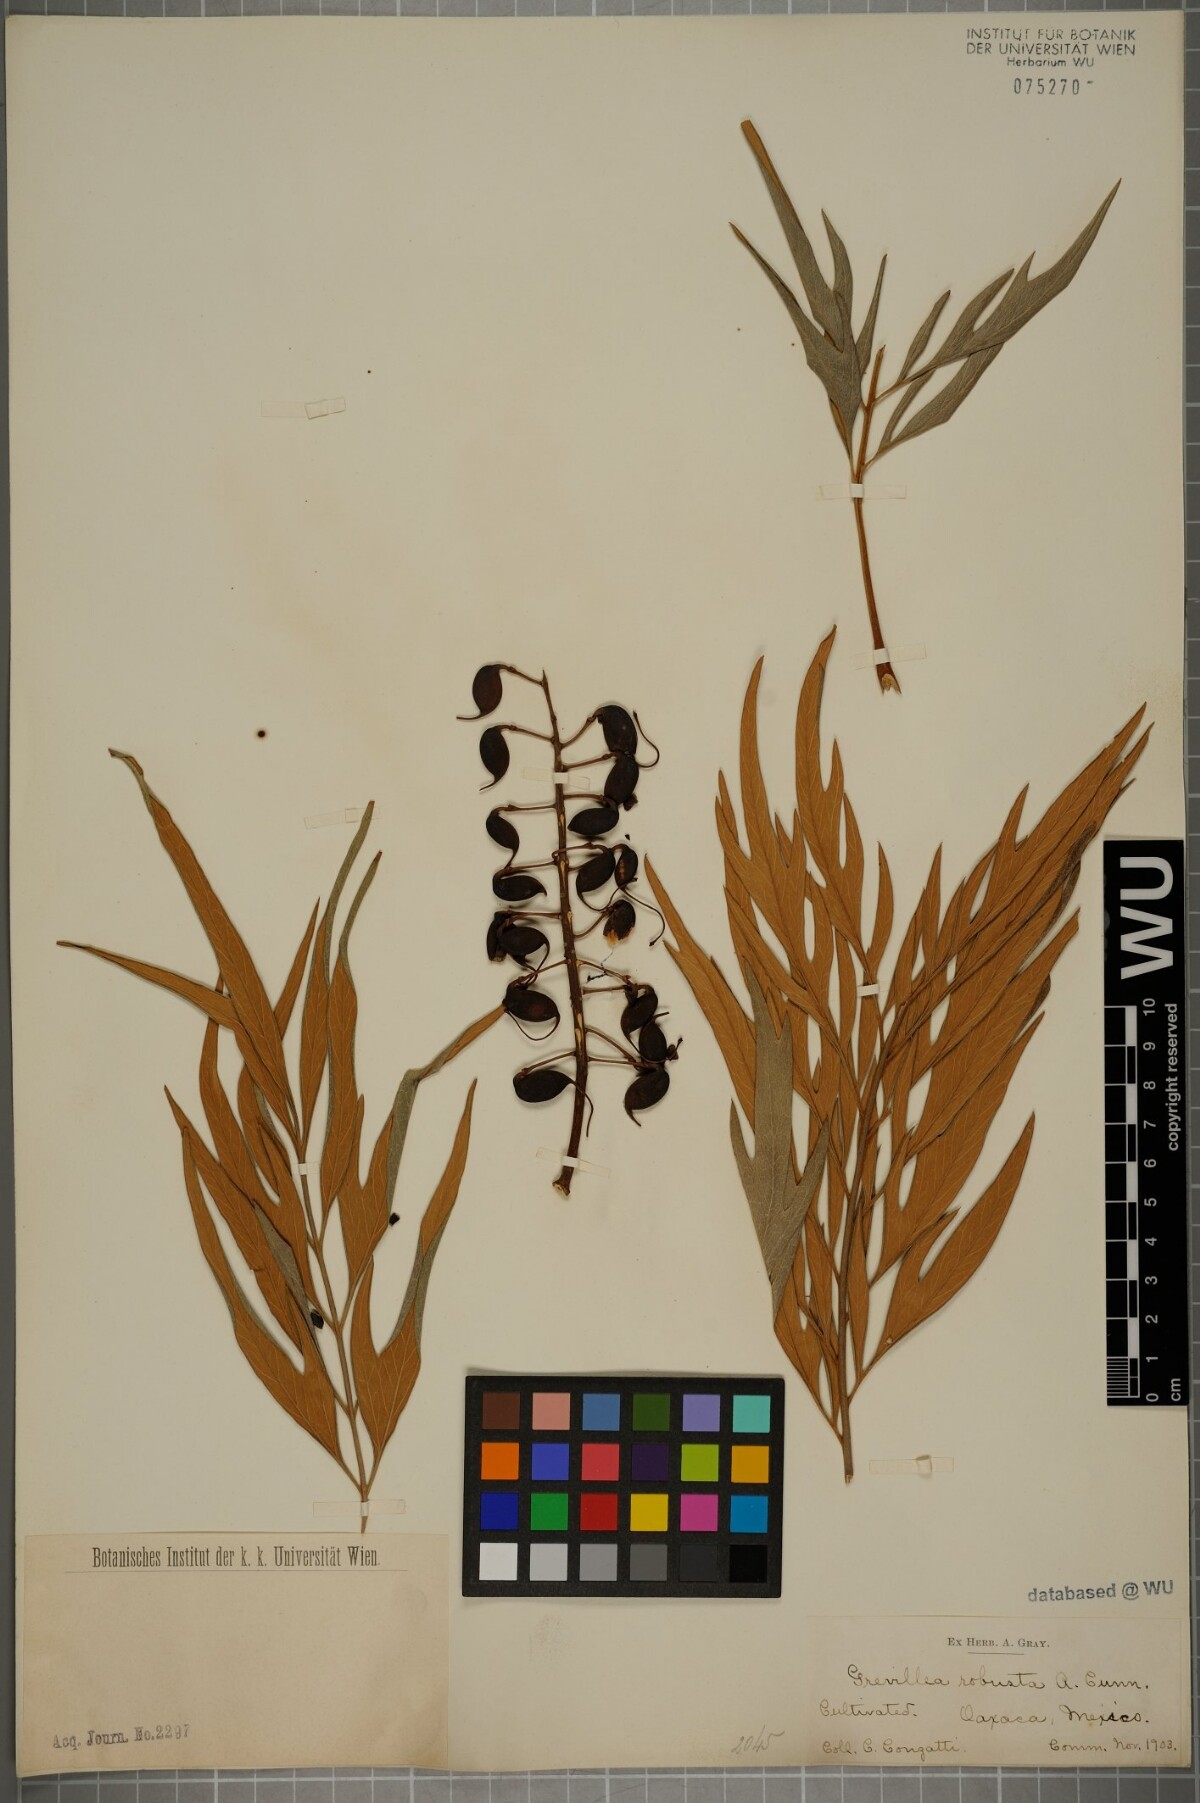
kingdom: Plantae
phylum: Tracheophyta
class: Magnoliopsida
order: Proteales
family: Proteaceae
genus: Grevillea
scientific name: Grevillea robusta
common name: Silkoak
